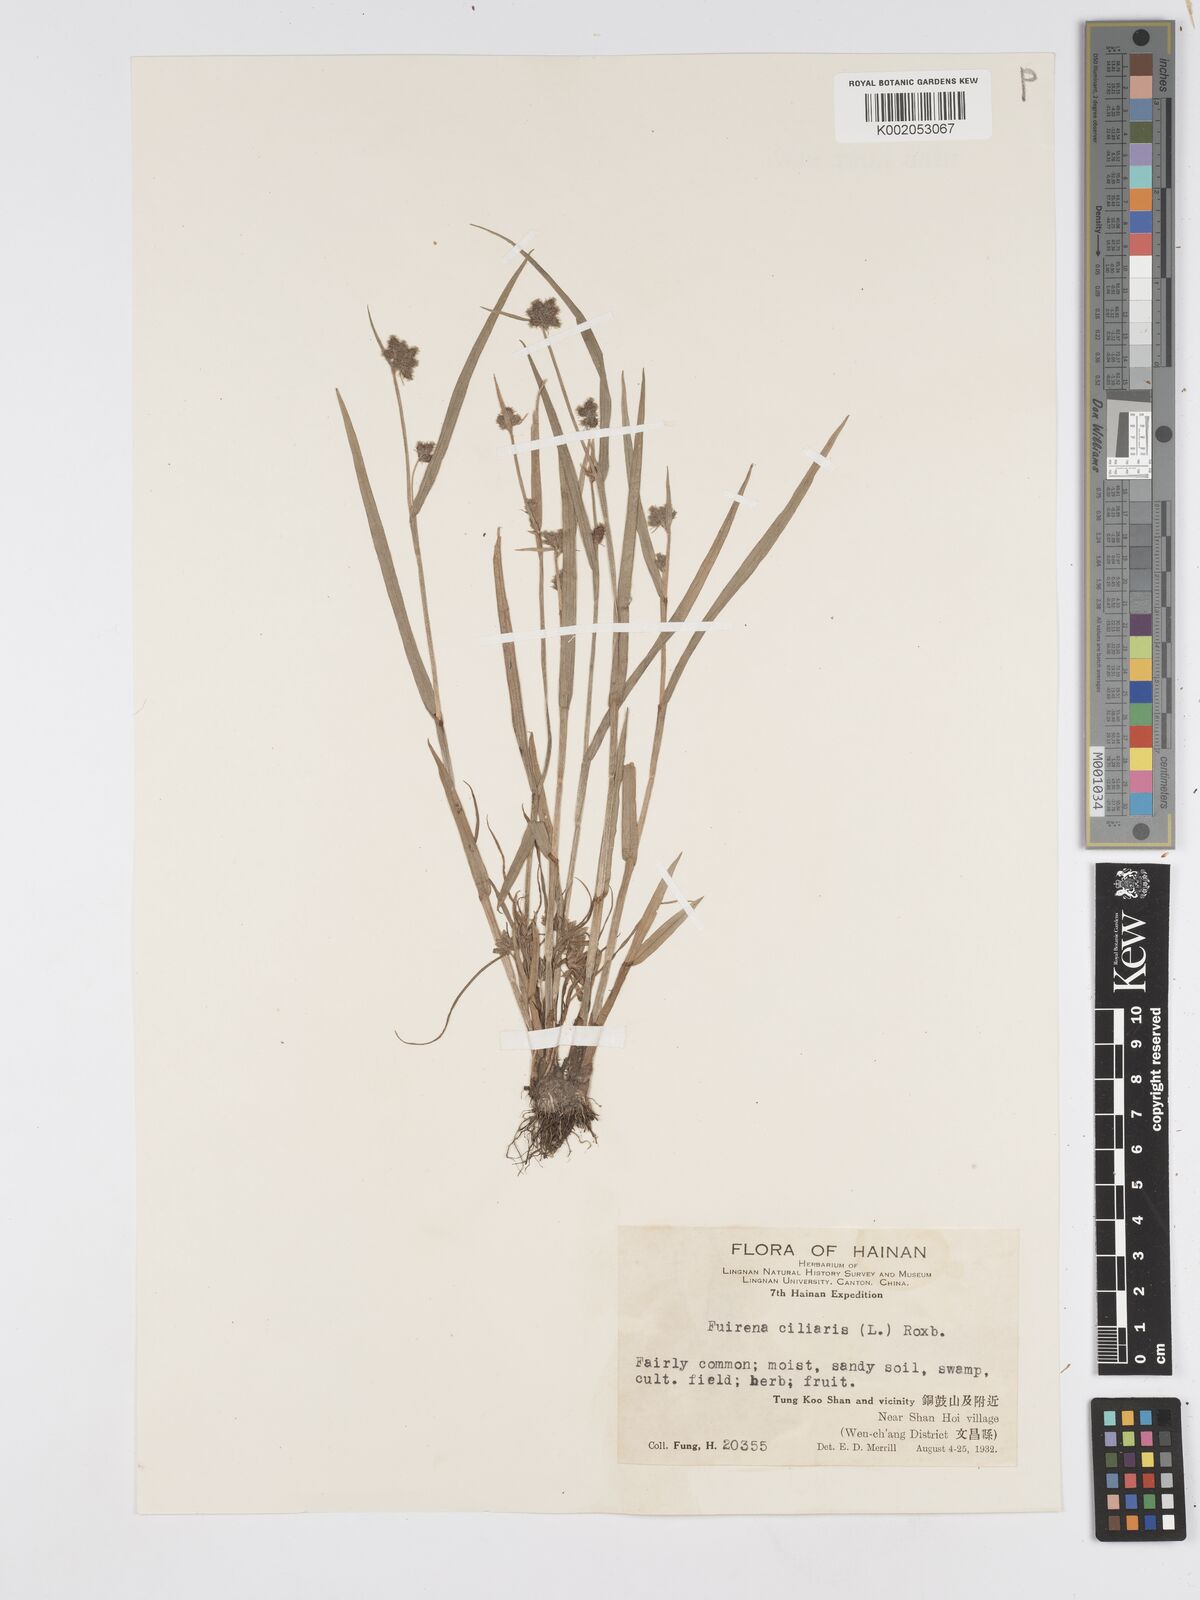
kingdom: Plantae
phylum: Tracheophyta
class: Liliopsida
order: Poales
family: Cyperaceae
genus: Fuirena
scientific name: Fuirena ciliaris
